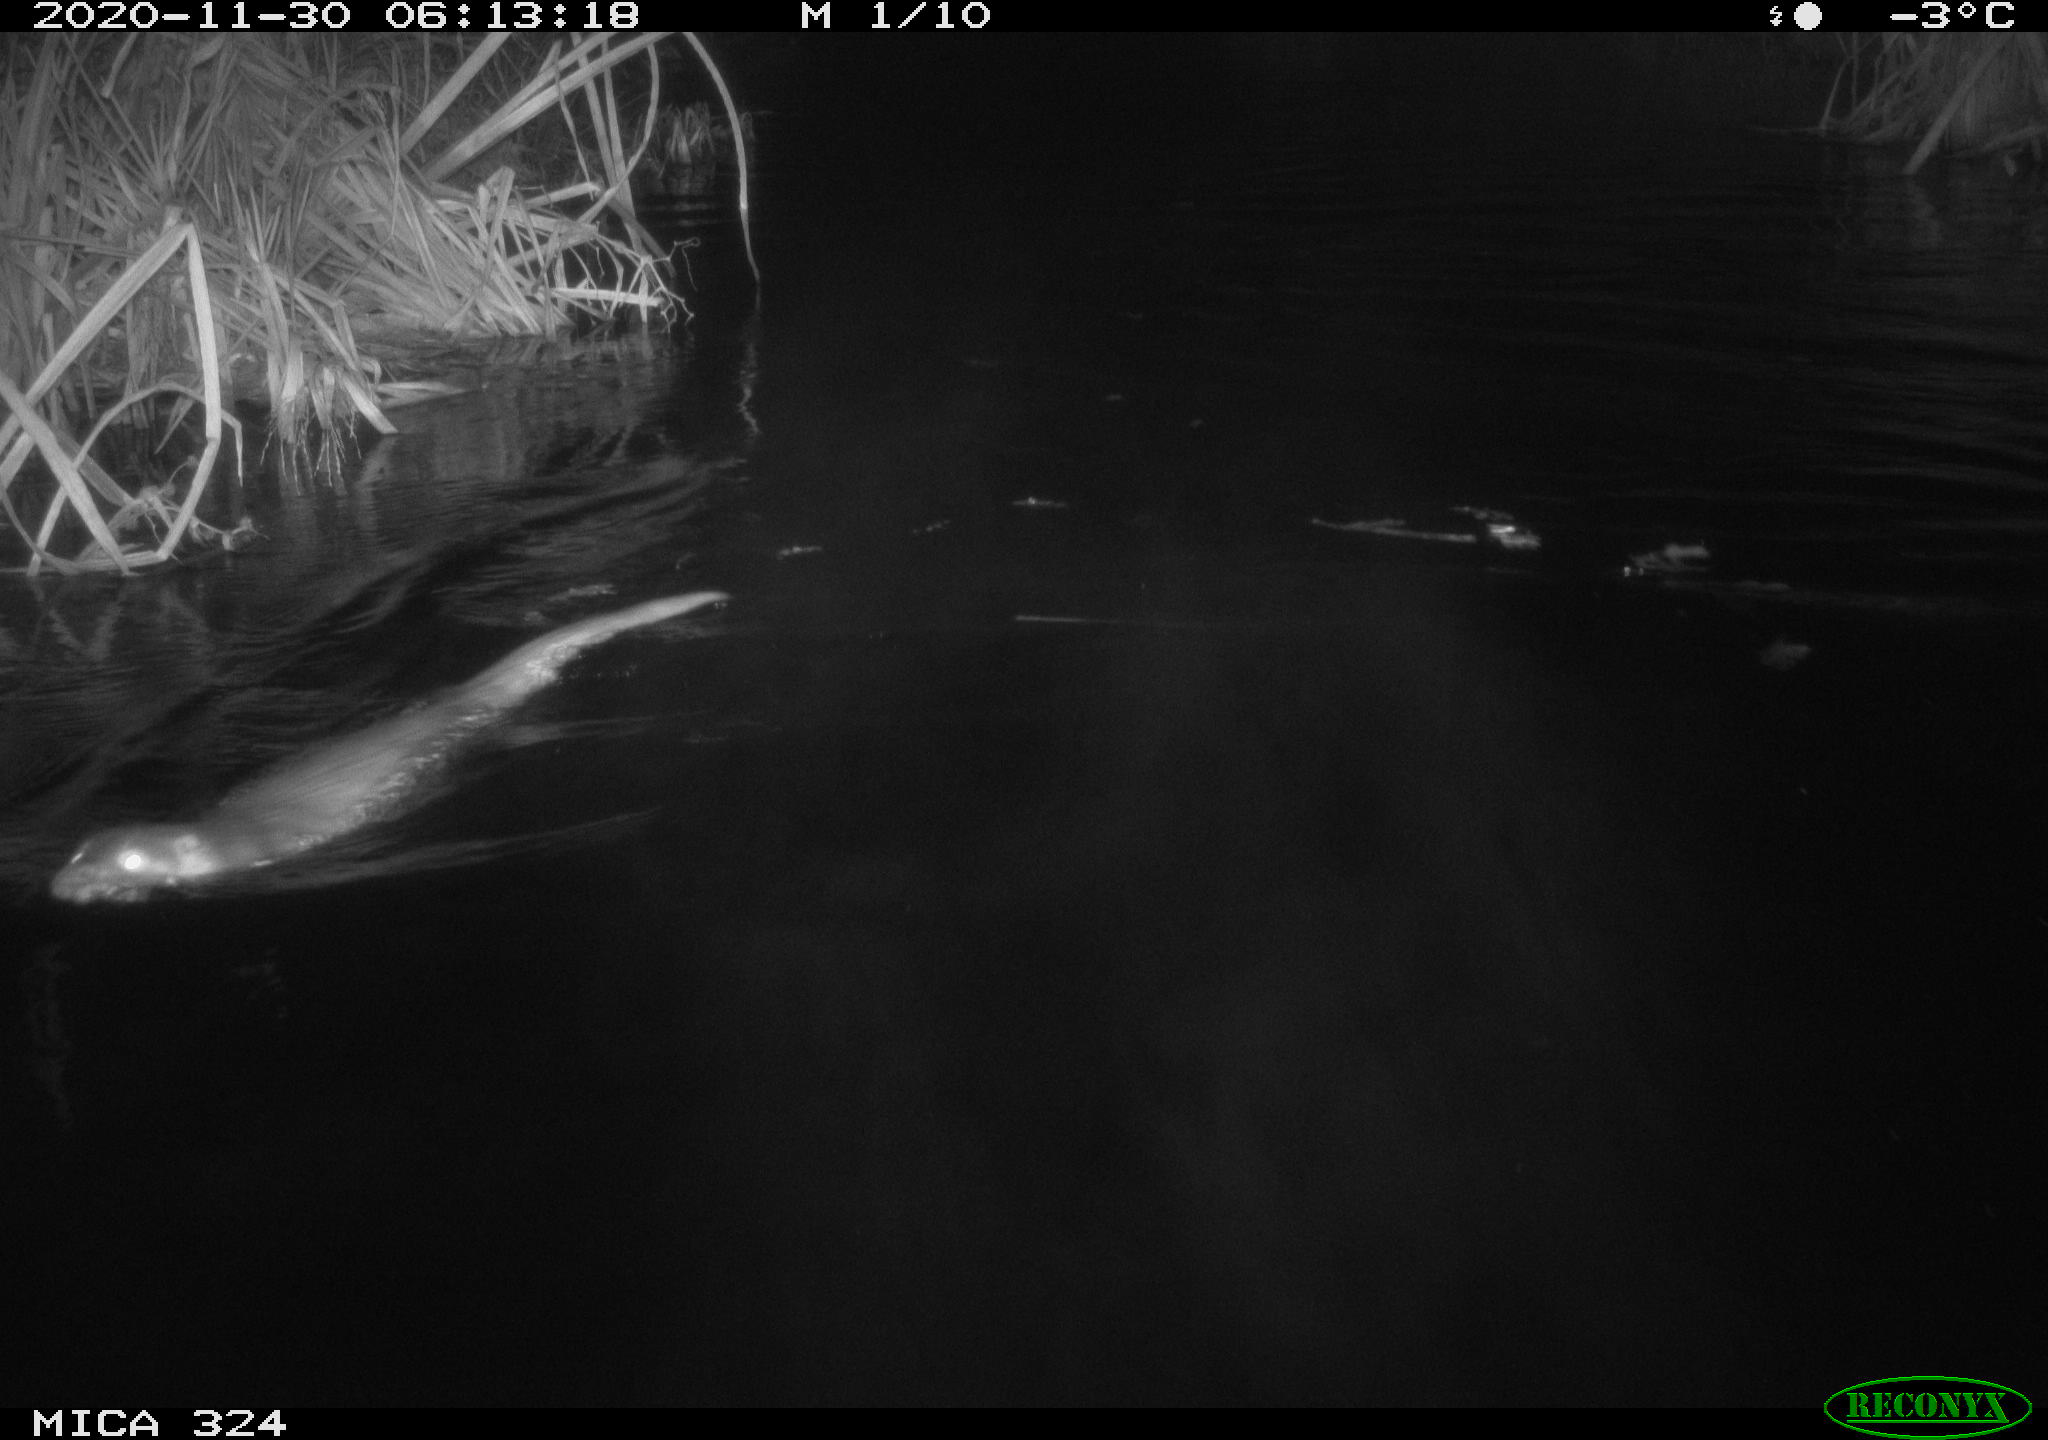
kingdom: Animalia
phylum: Chordata
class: Mammalia
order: Carnivora
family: Mustelidae
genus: Lutra
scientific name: Lutra lutra
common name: European otter
